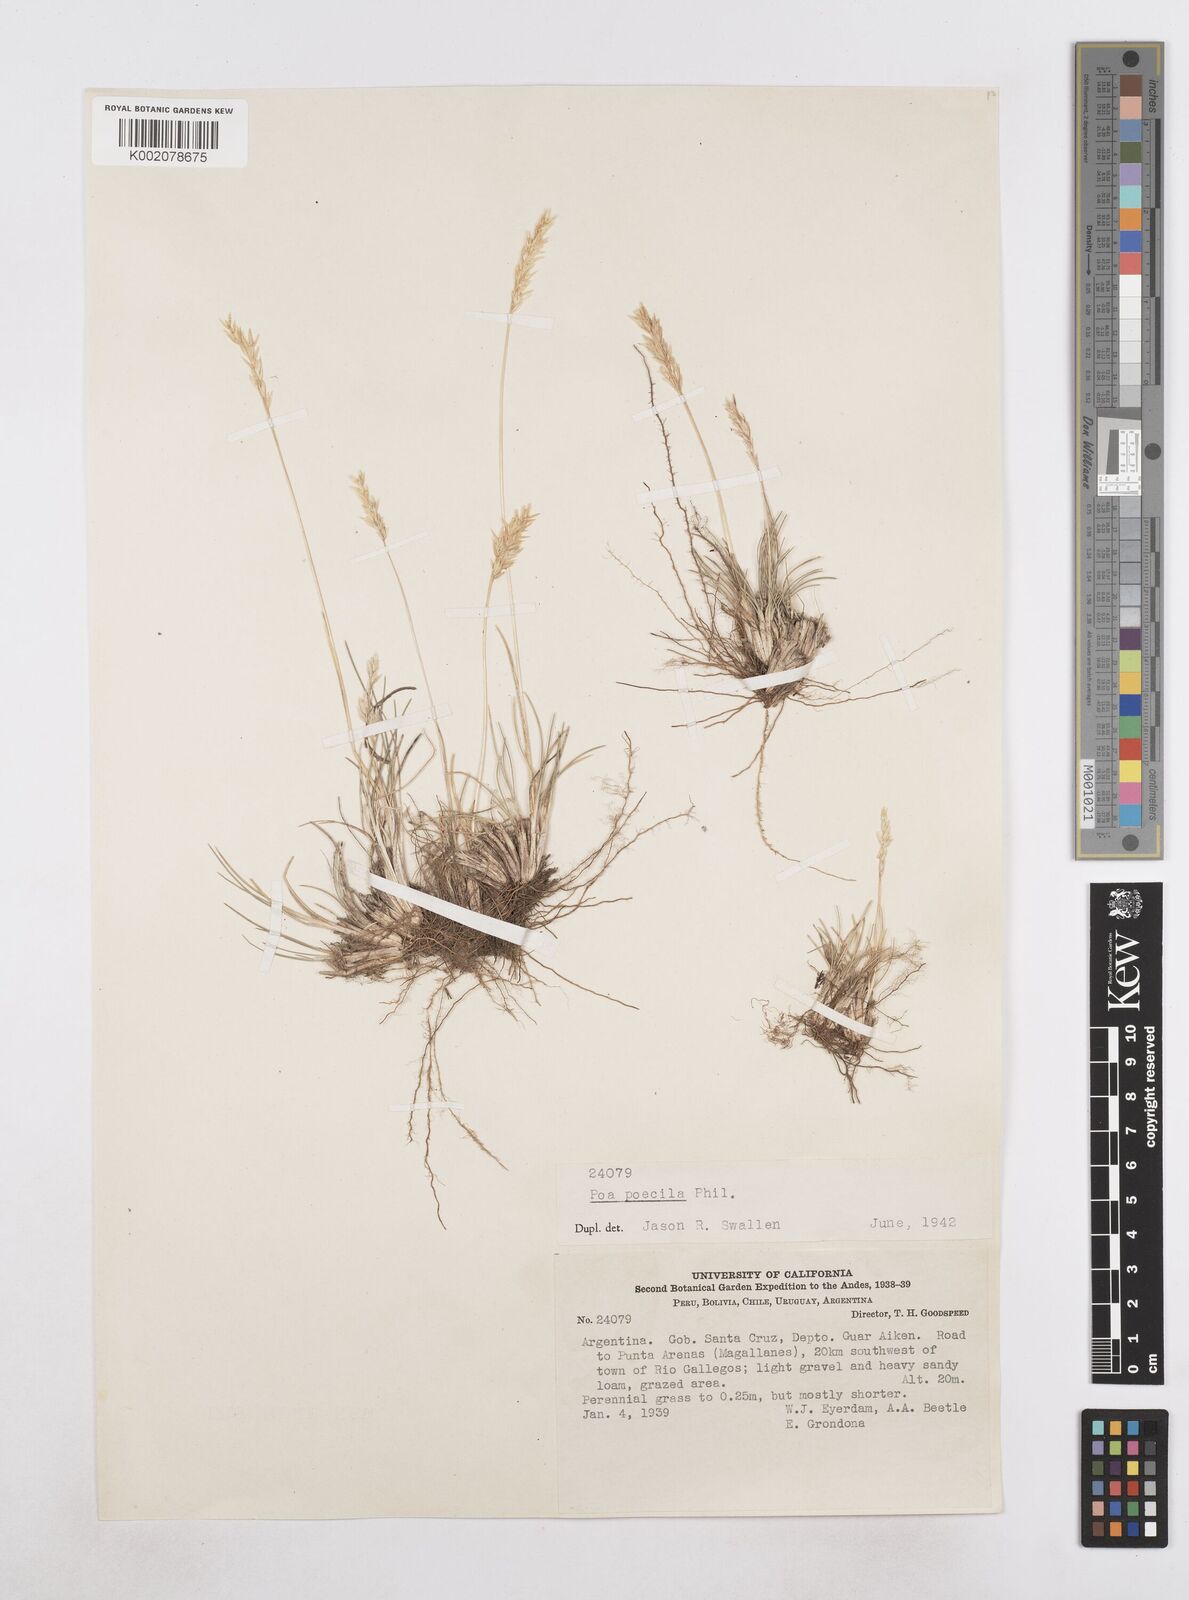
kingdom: Plantae
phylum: Tracheophyta
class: Liliopsida
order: Poales
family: Poaceae
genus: Poa
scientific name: Poa spiciformis
